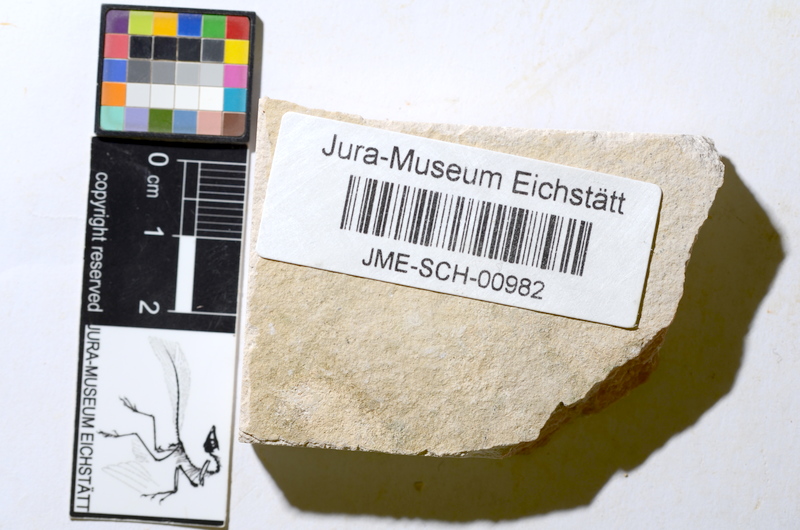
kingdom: Animalia
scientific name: Animalia
